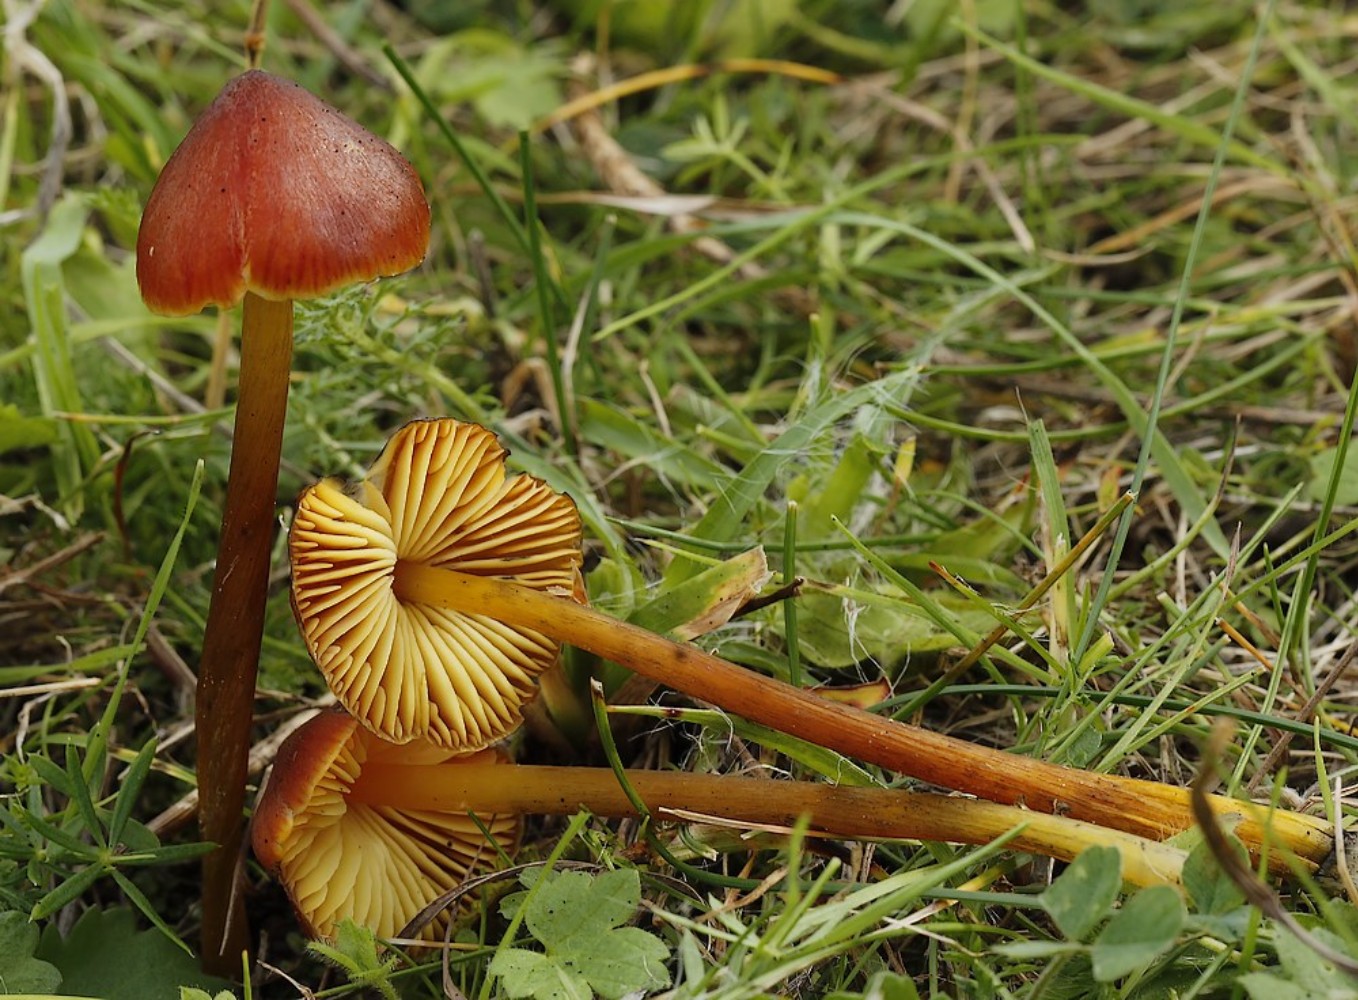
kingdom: Fungi
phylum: Basidiomycota
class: Agaricomycetes
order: Agaricales
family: Hygrophoraceae
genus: Hygrocybe
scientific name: Hygrocybe conica
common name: kegle-vokshat
